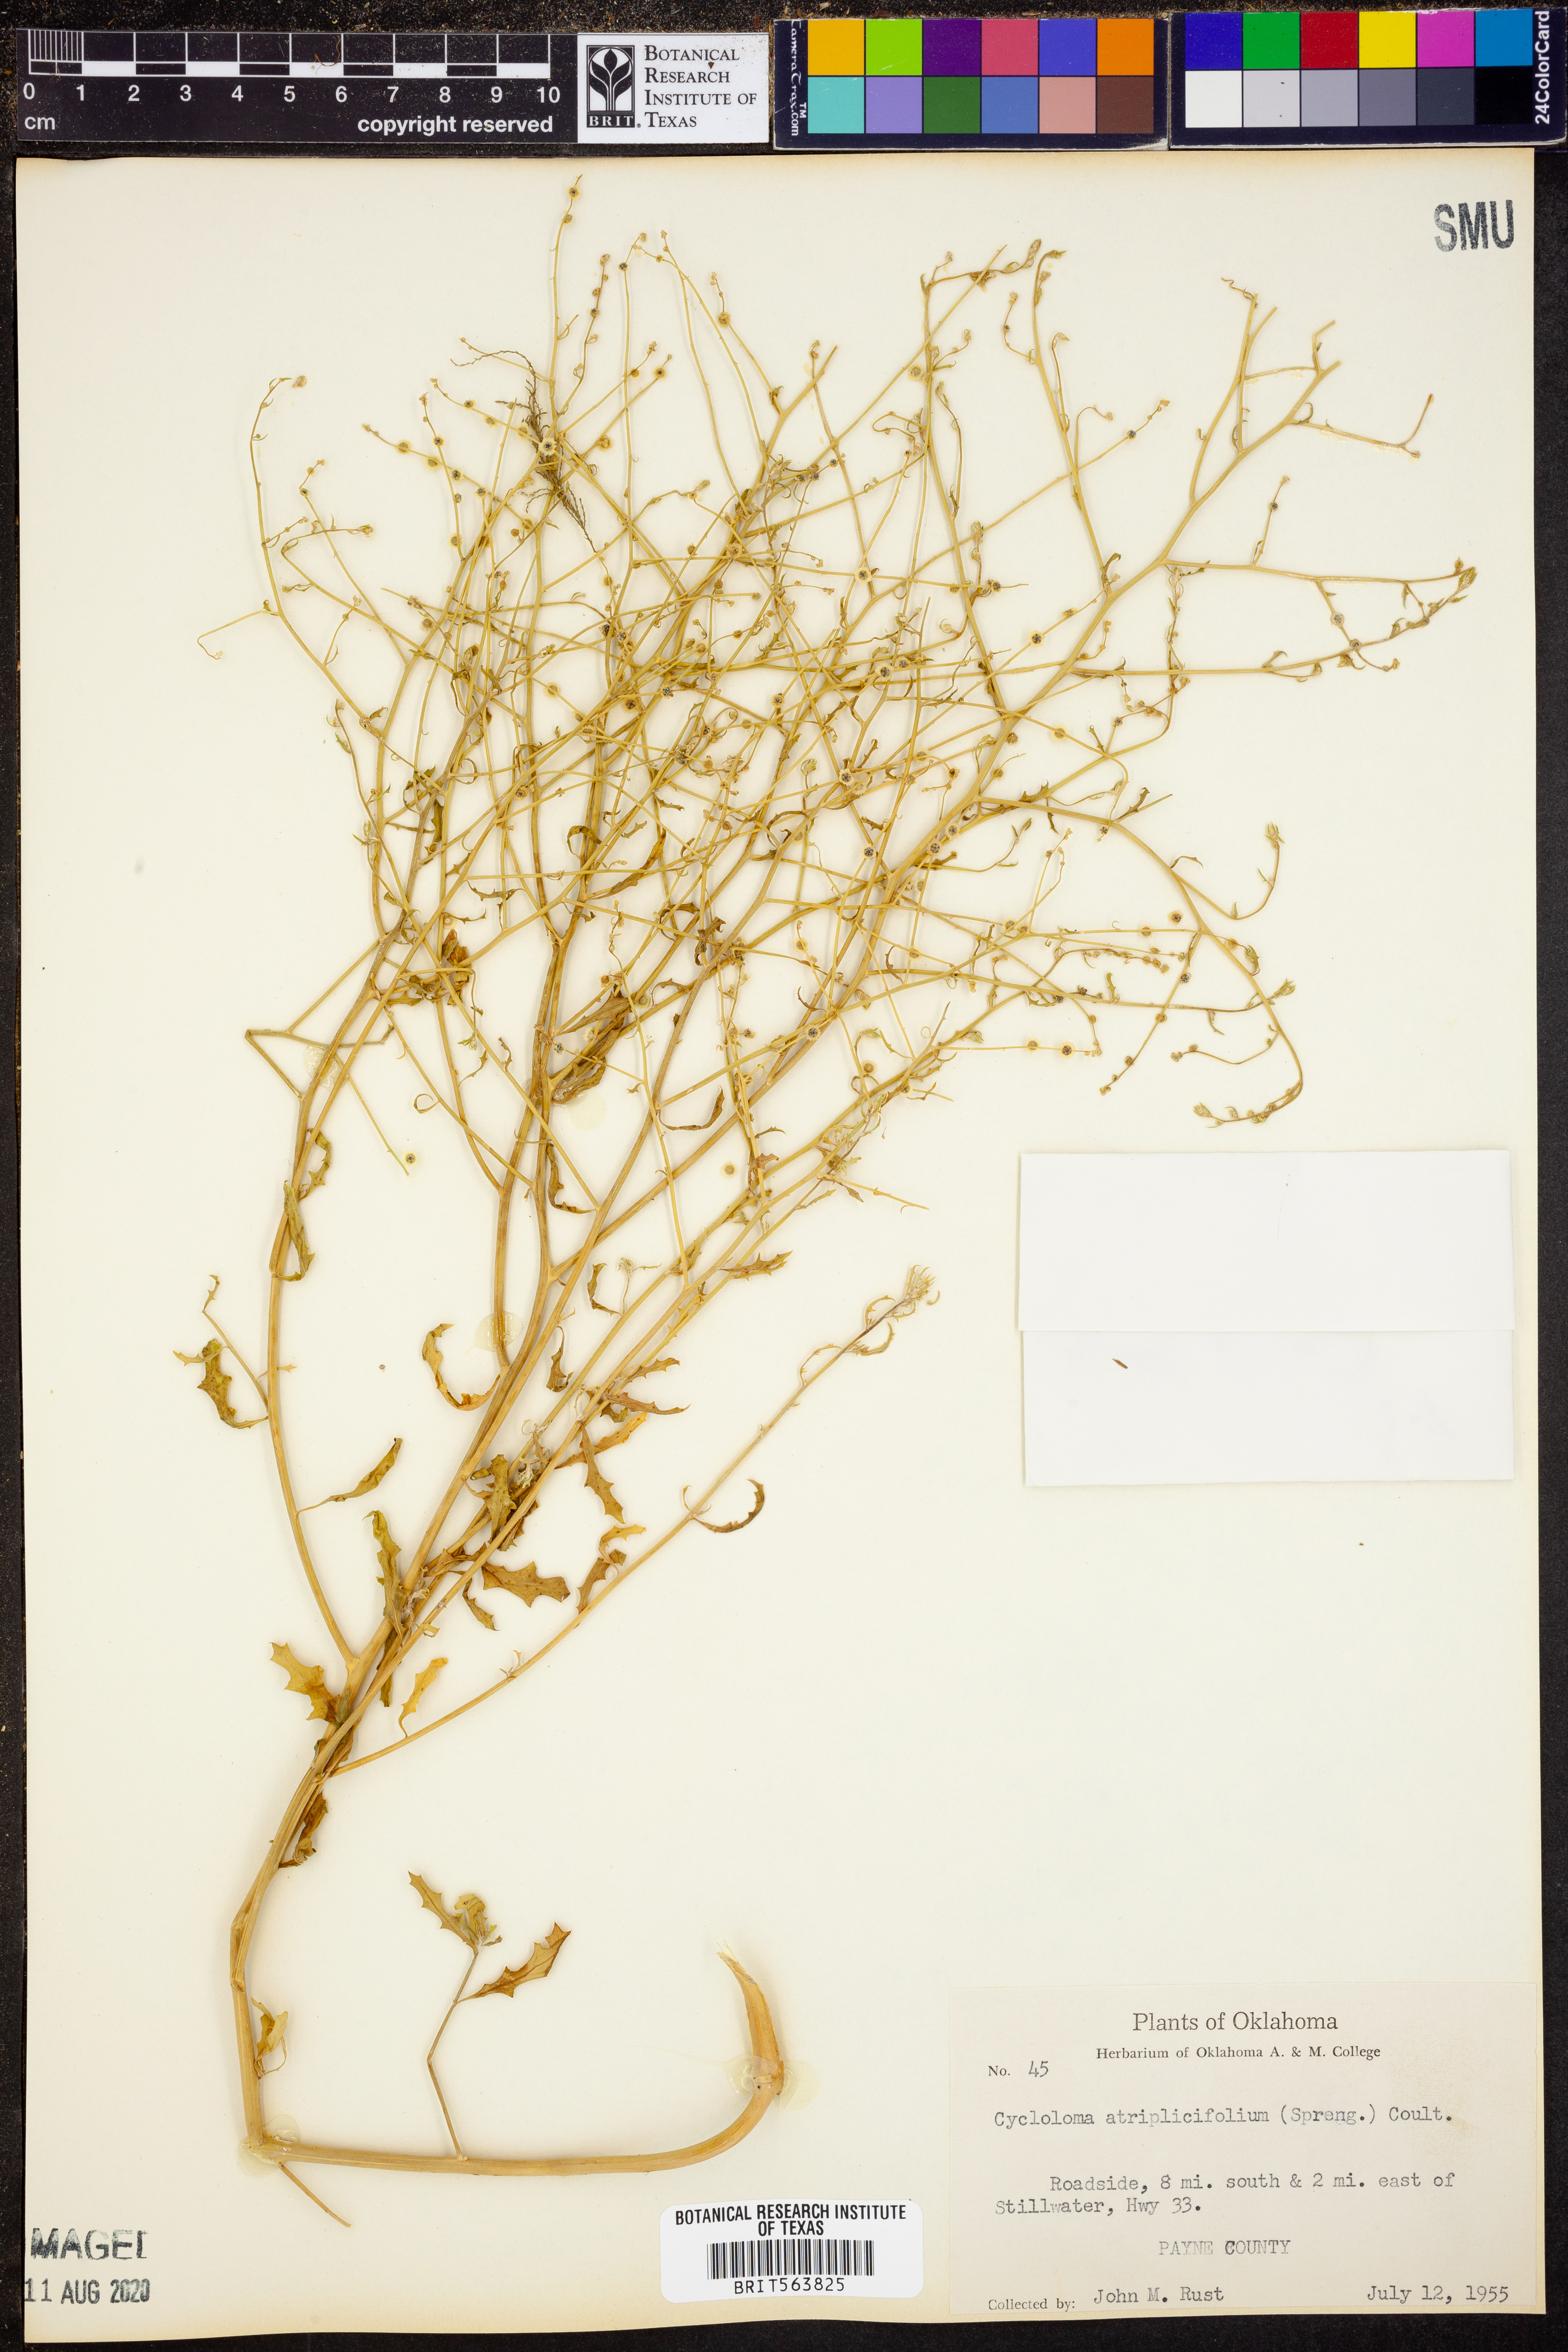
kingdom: Plantae
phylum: Tracheophyta
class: Magnoliopsida
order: Caryophyllales
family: Amaranthaceae
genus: Dysphania
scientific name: Dysphania atriplicifolia
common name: Plains tumbleweed
